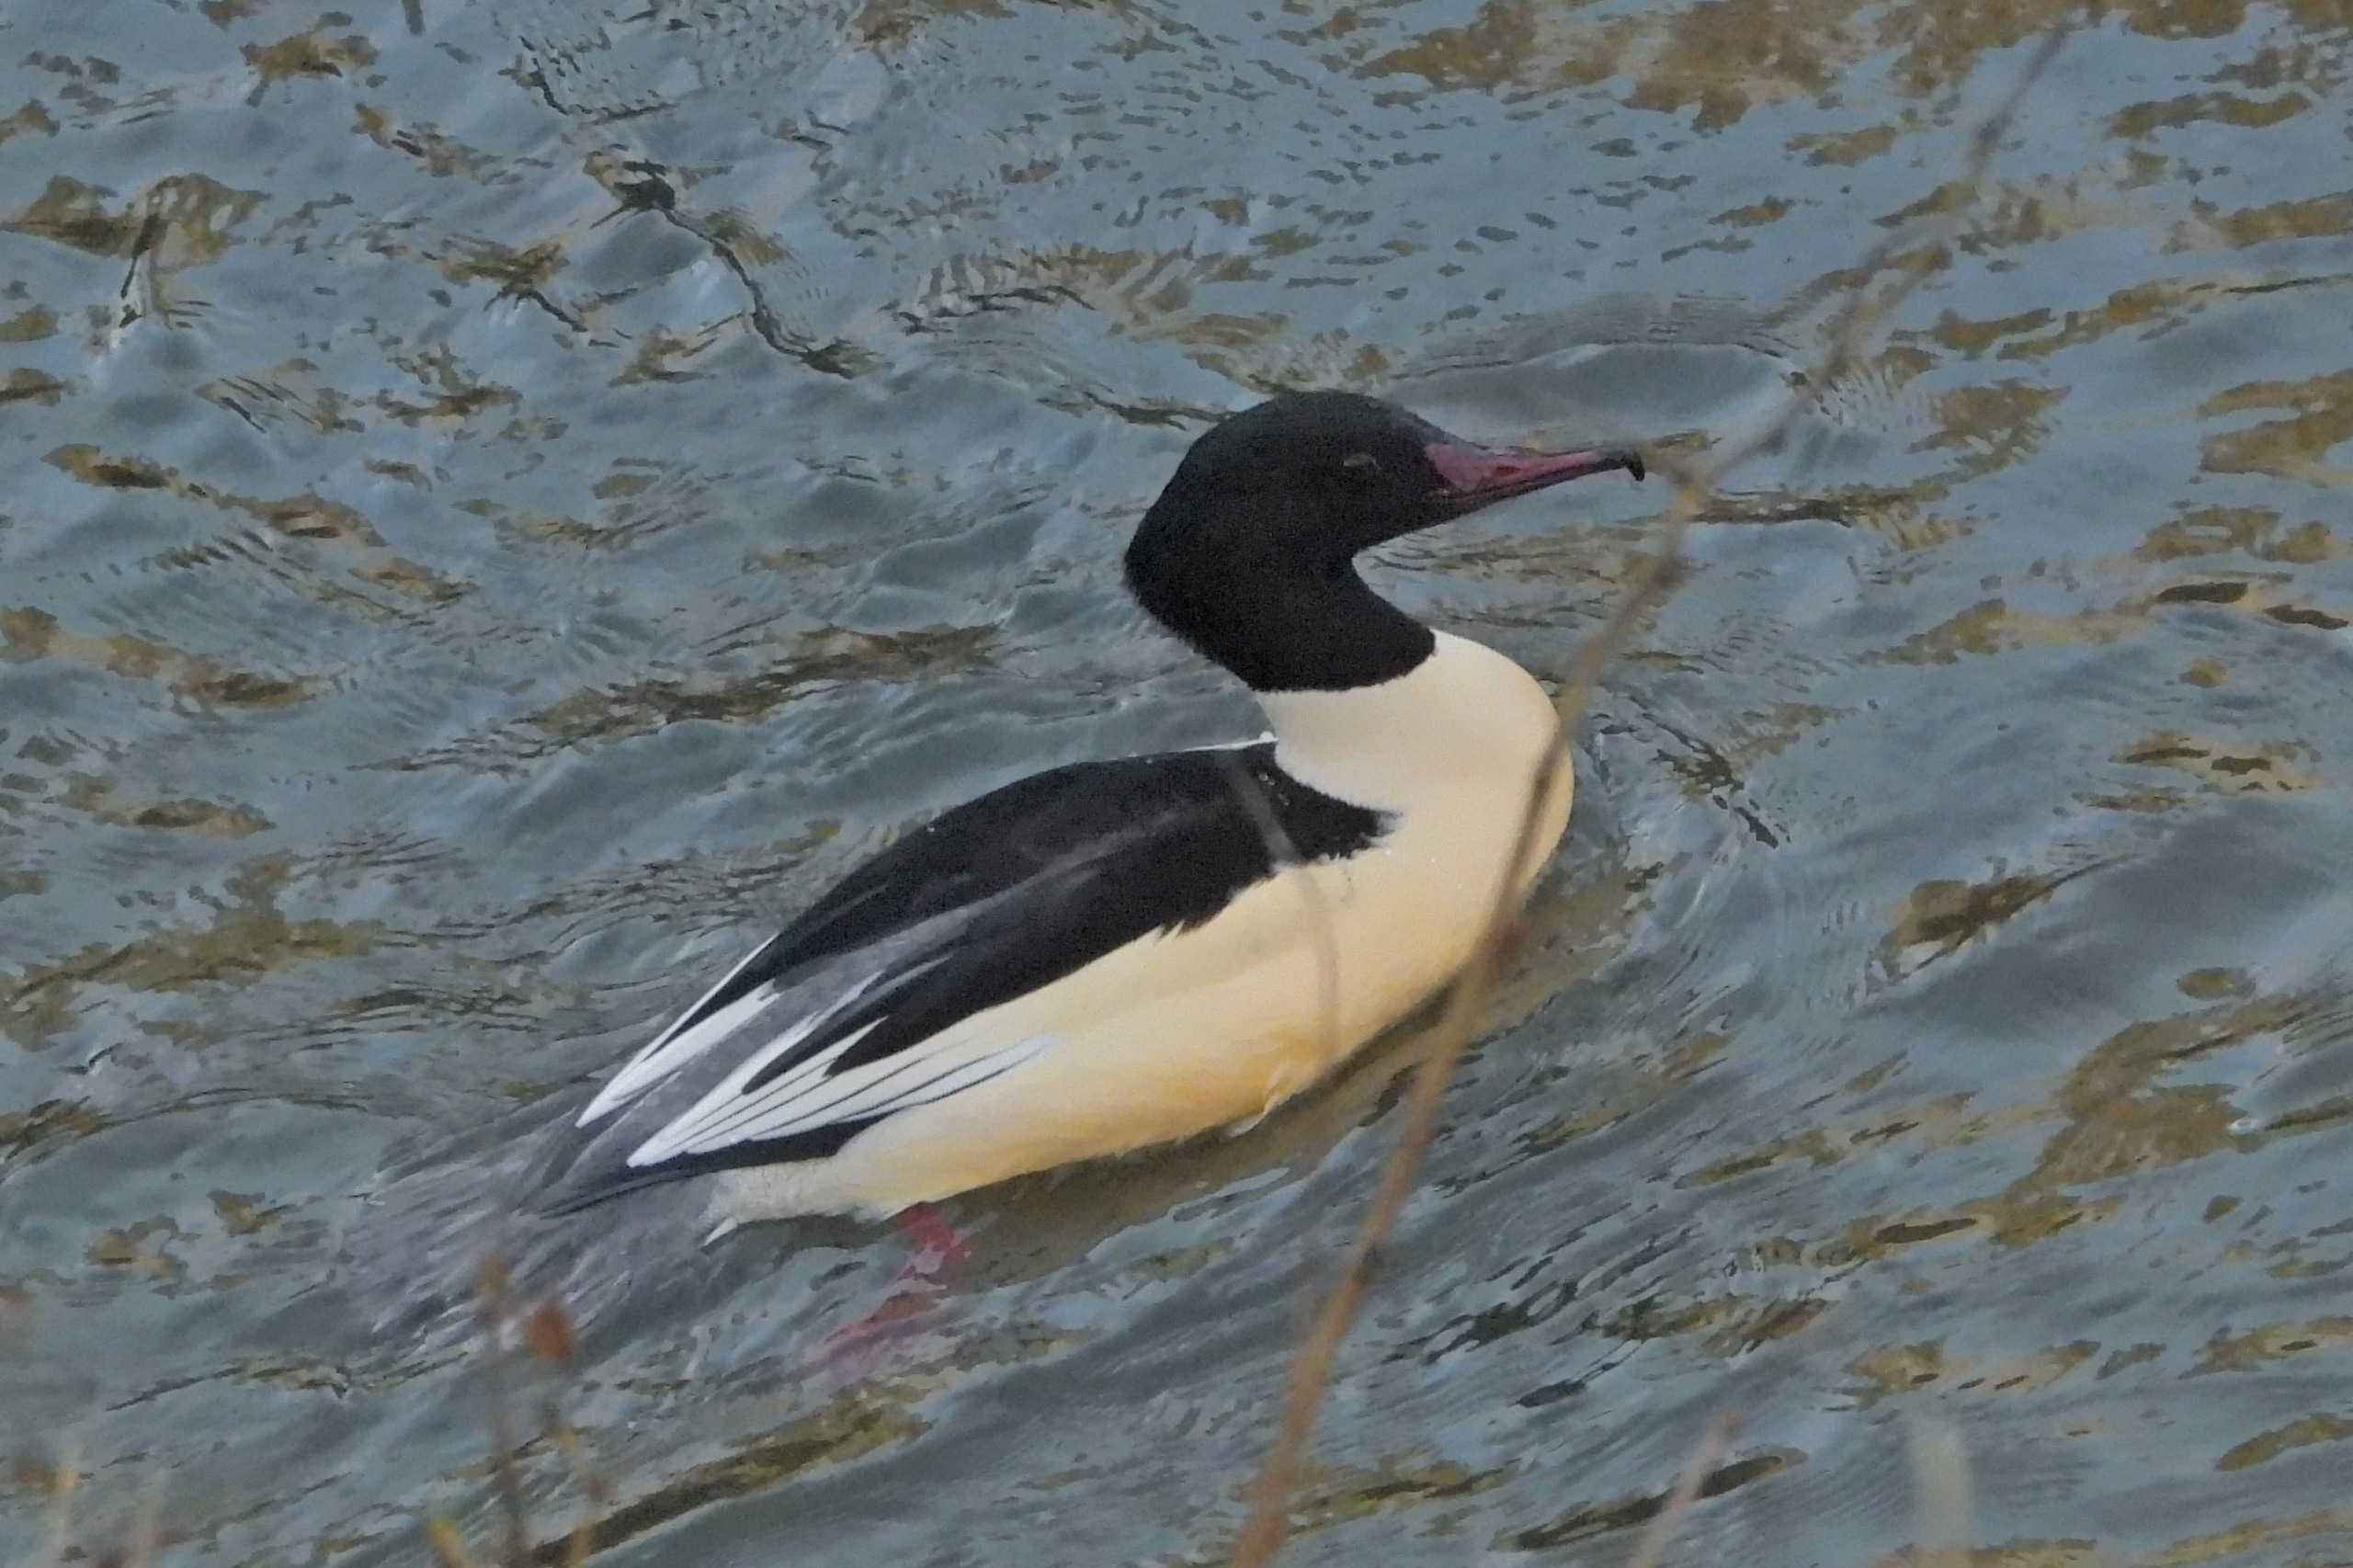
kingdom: Animalia
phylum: Chordata
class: Aves
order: Anseriformes
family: Anatidae
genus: Mergus
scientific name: Mergus merganser
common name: Stor skallesluger
